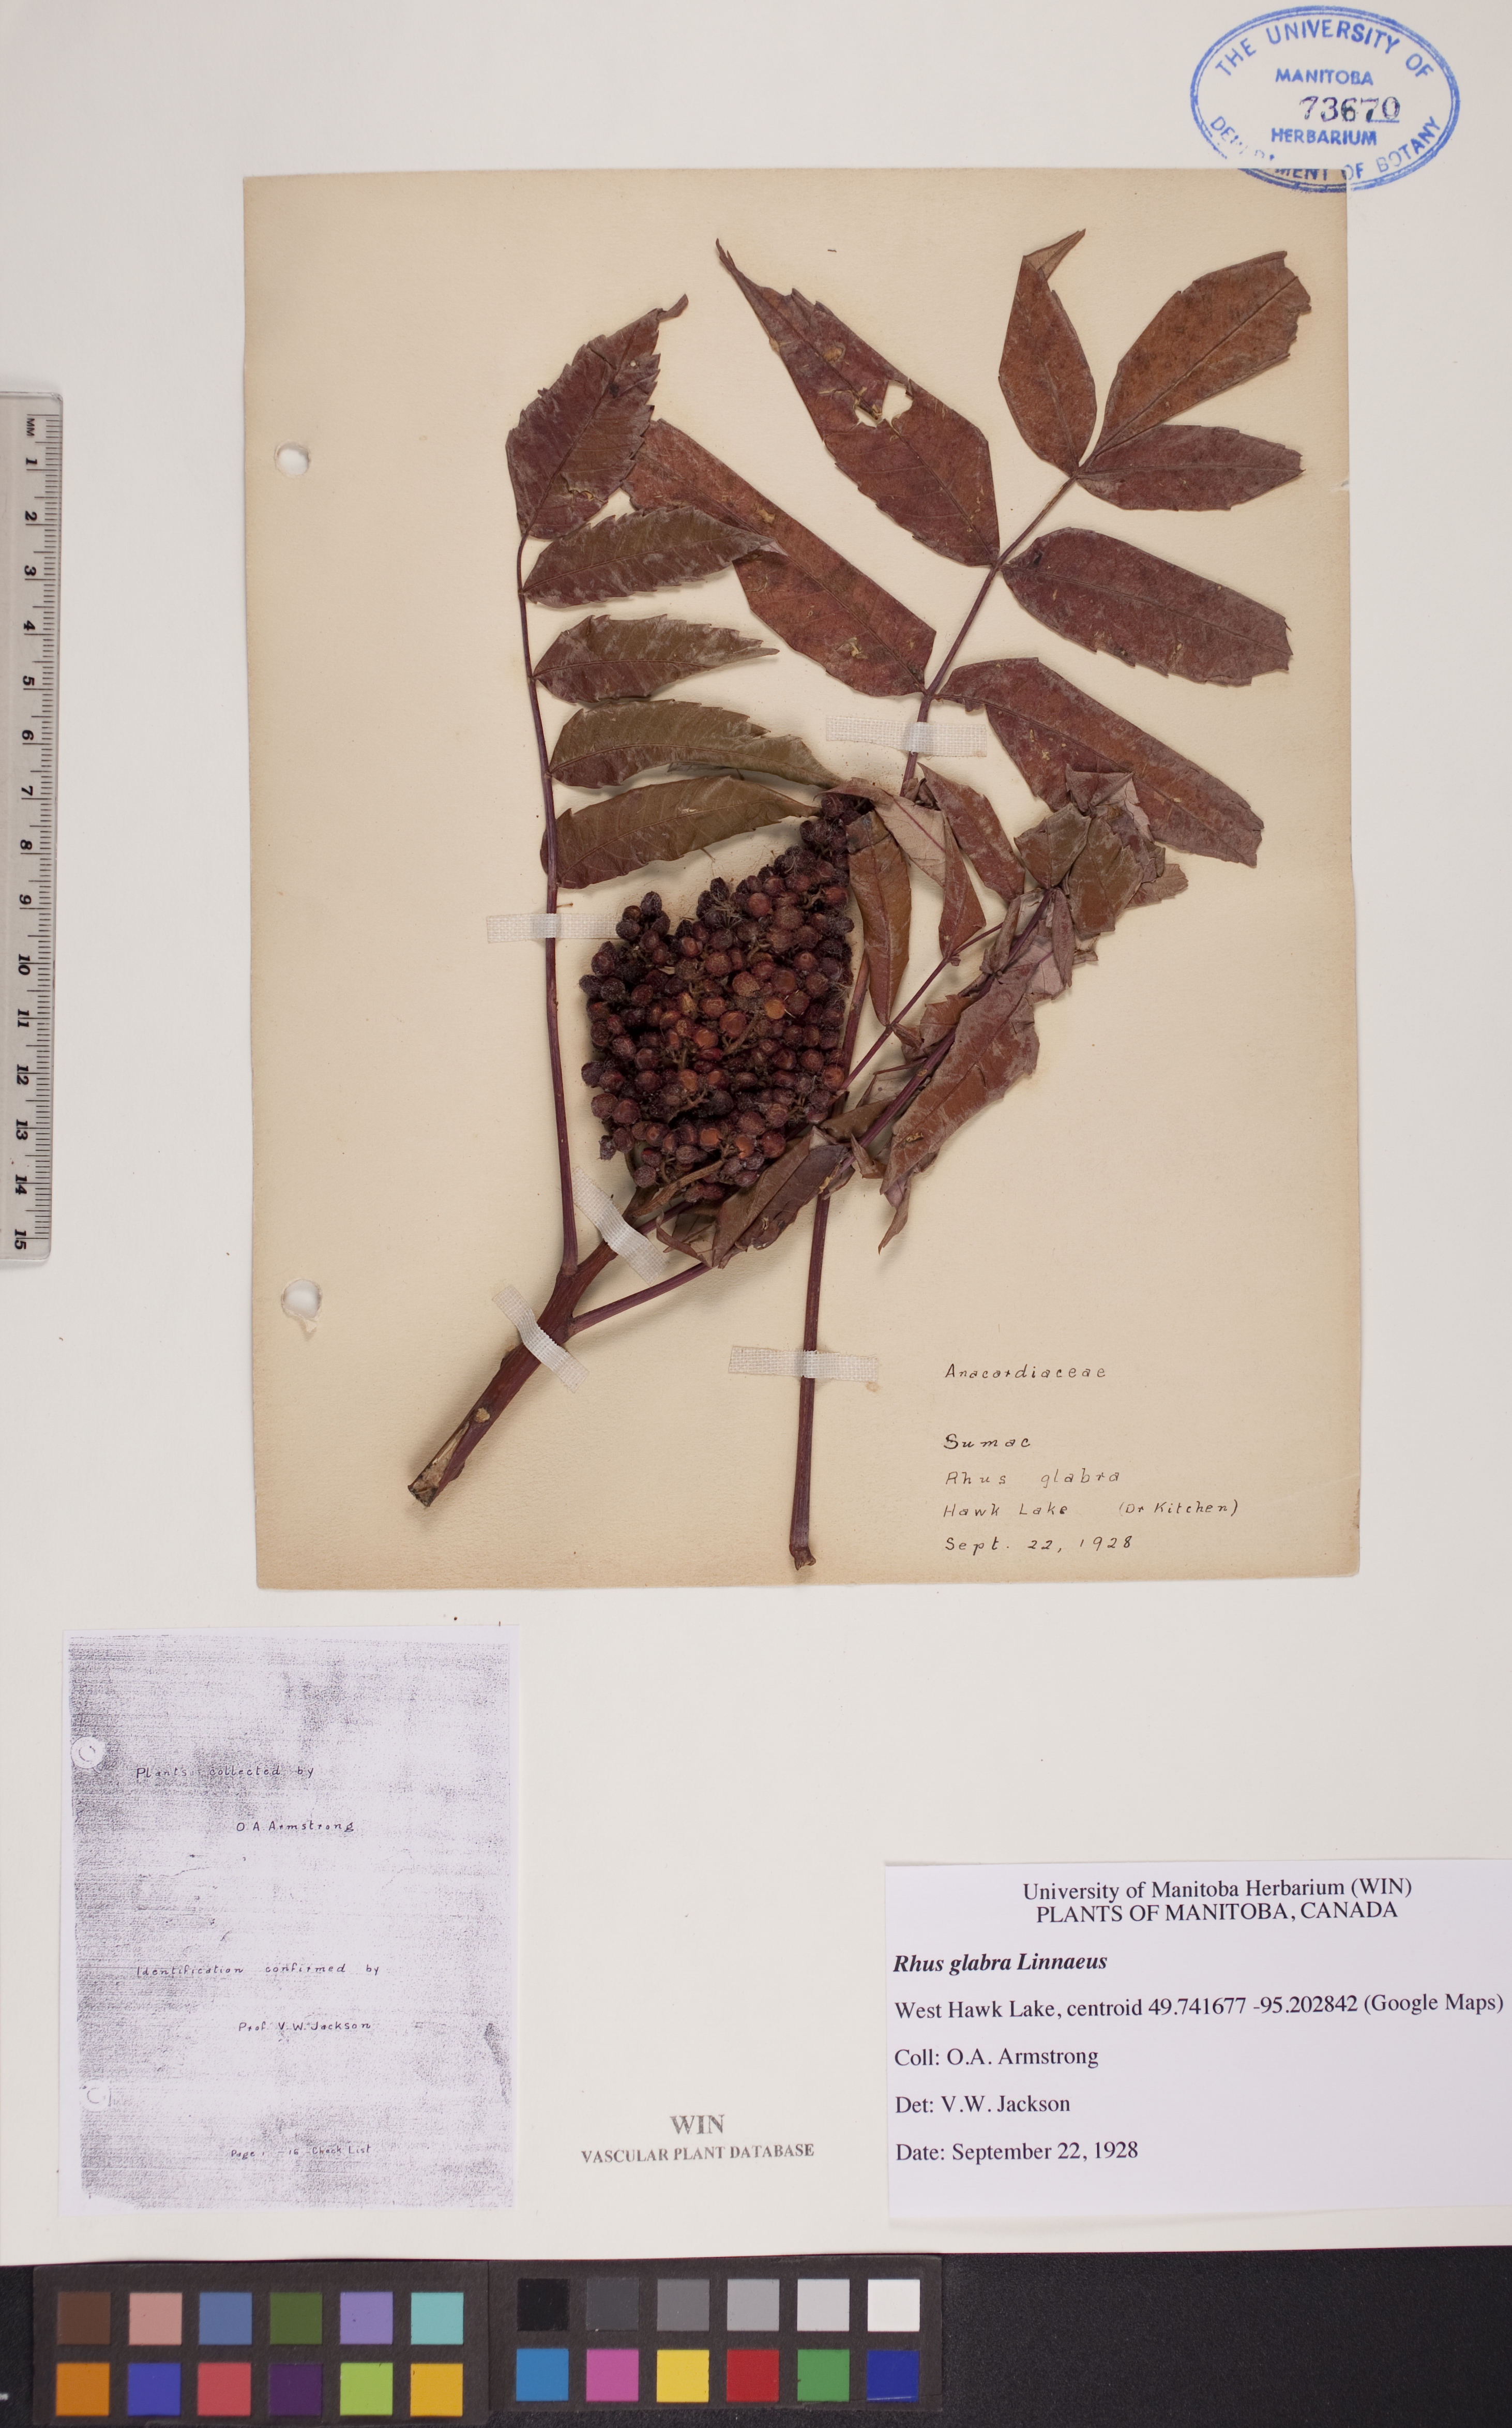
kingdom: Plantae
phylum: Tracheophyta
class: Magnoliopsida
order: Sapindales
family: Anacardiaceae
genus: Rhus
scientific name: Rhus glabra
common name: Scarlet sumac
